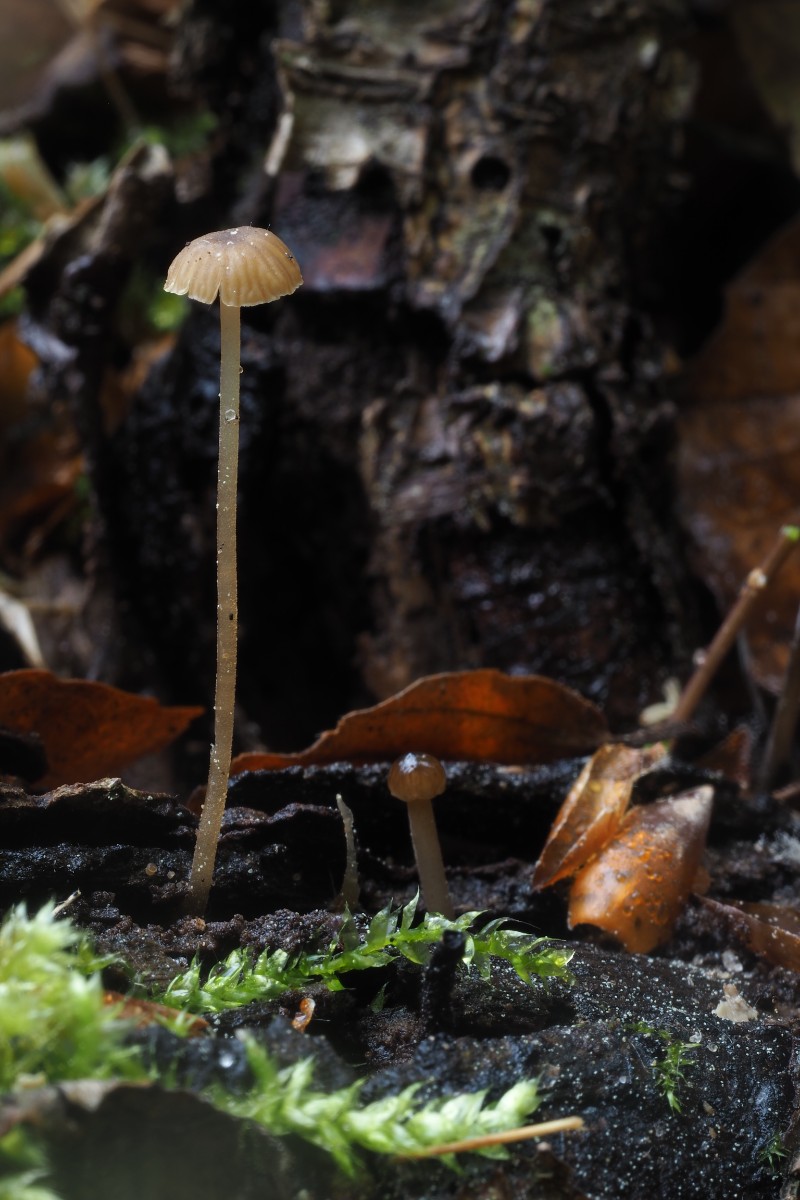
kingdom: Fungi
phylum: Basidiomycota
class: Agaricomycetes
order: Agaricales
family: Porotheleaceae
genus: Phloeomana
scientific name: Phloeomana speirea
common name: kvist-huesvamp
